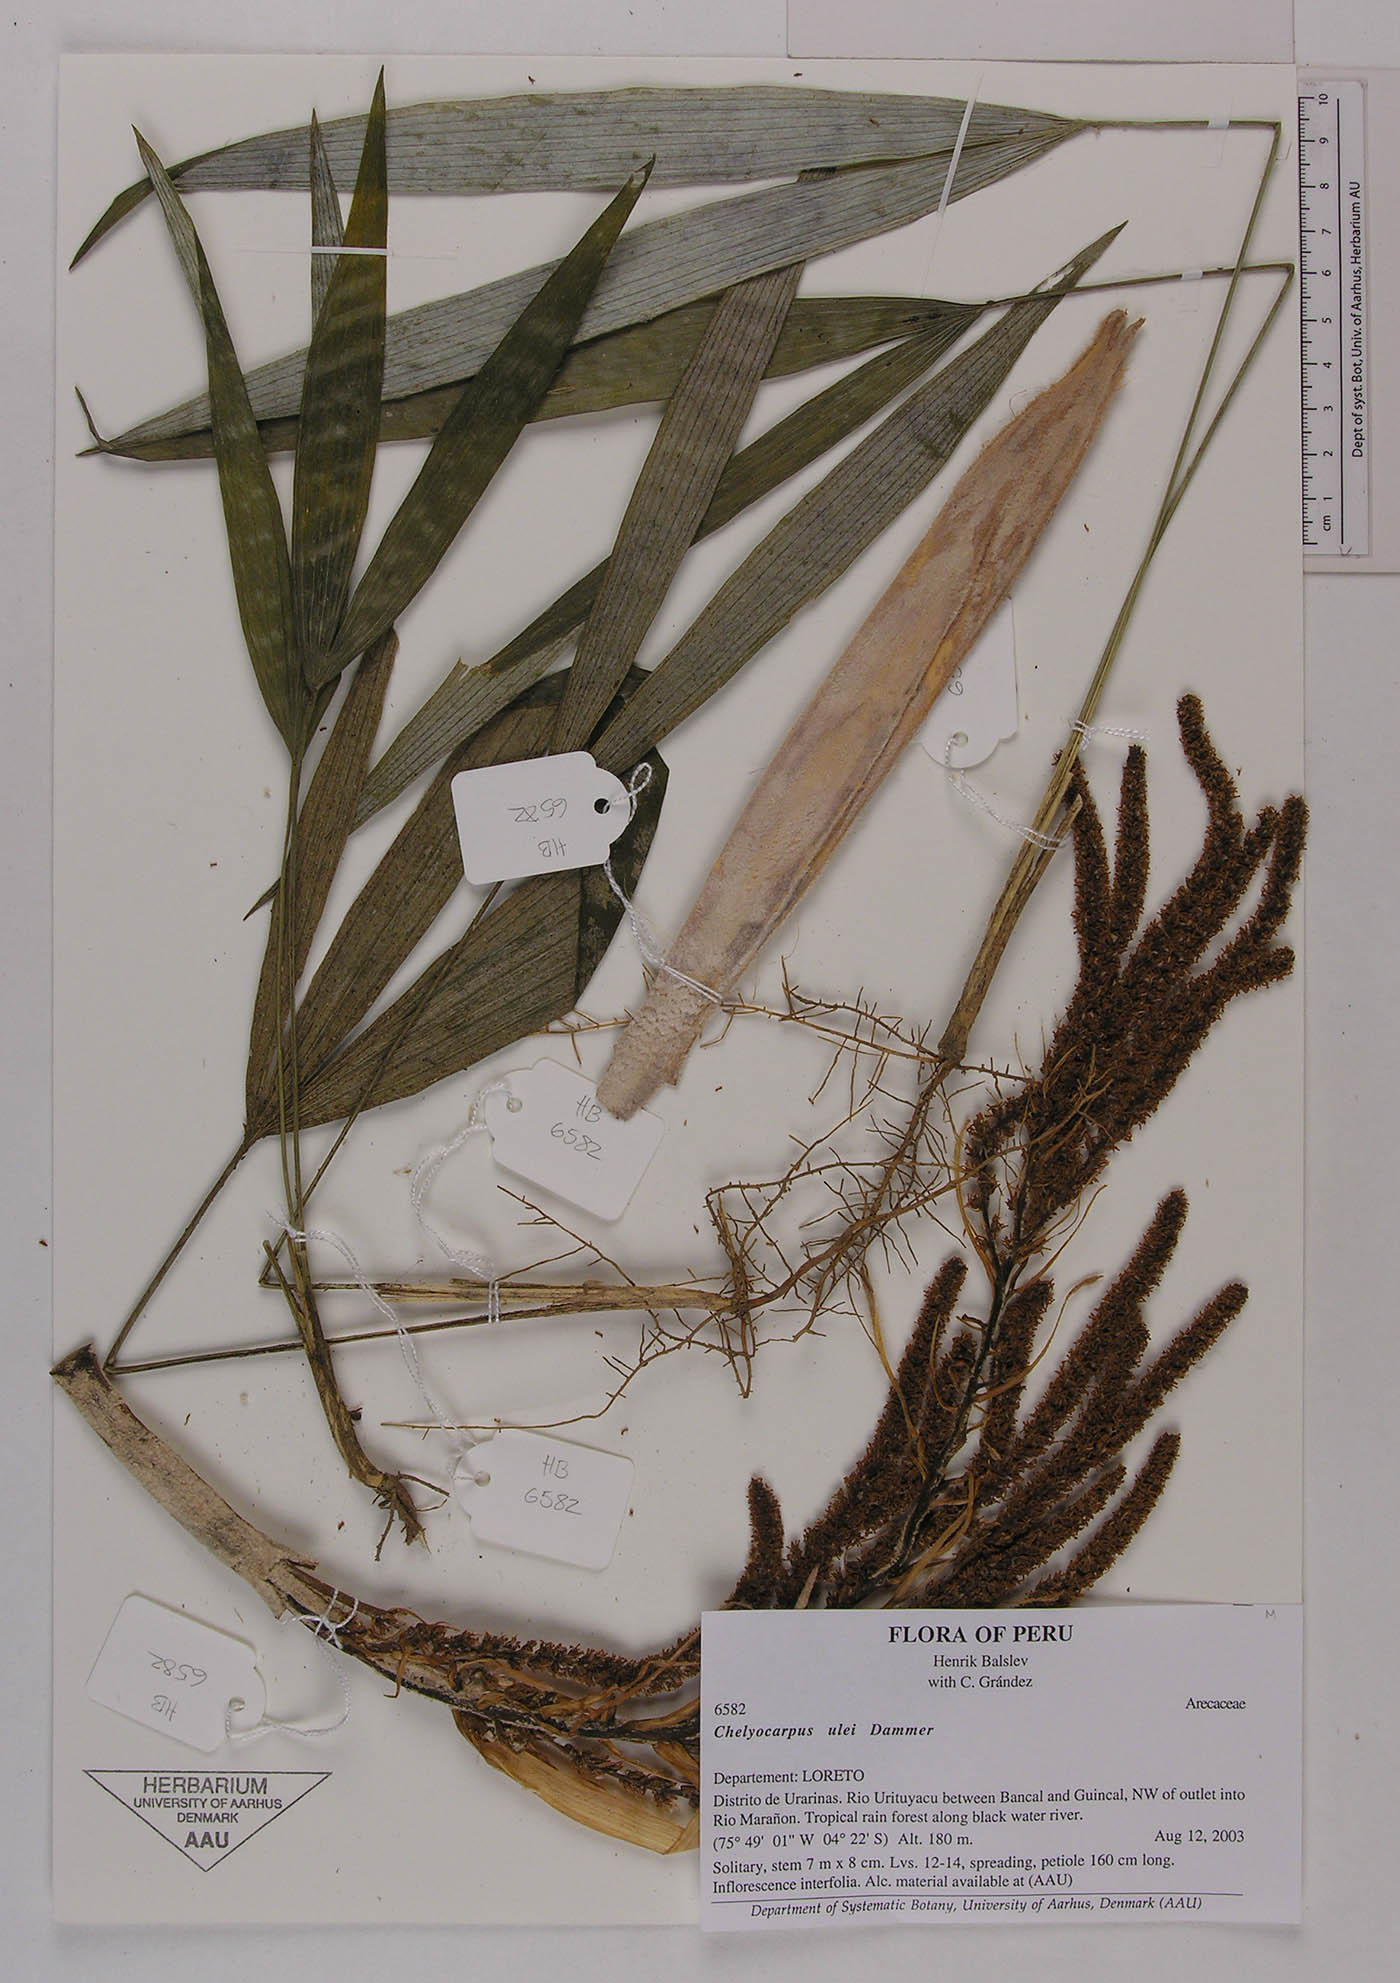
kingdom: Plantae
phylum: Tracheophyta
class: Liliopsida
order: Arecales
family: Arecaceae
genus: Chelyocarpus
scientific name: Chelyocarpus ulei
